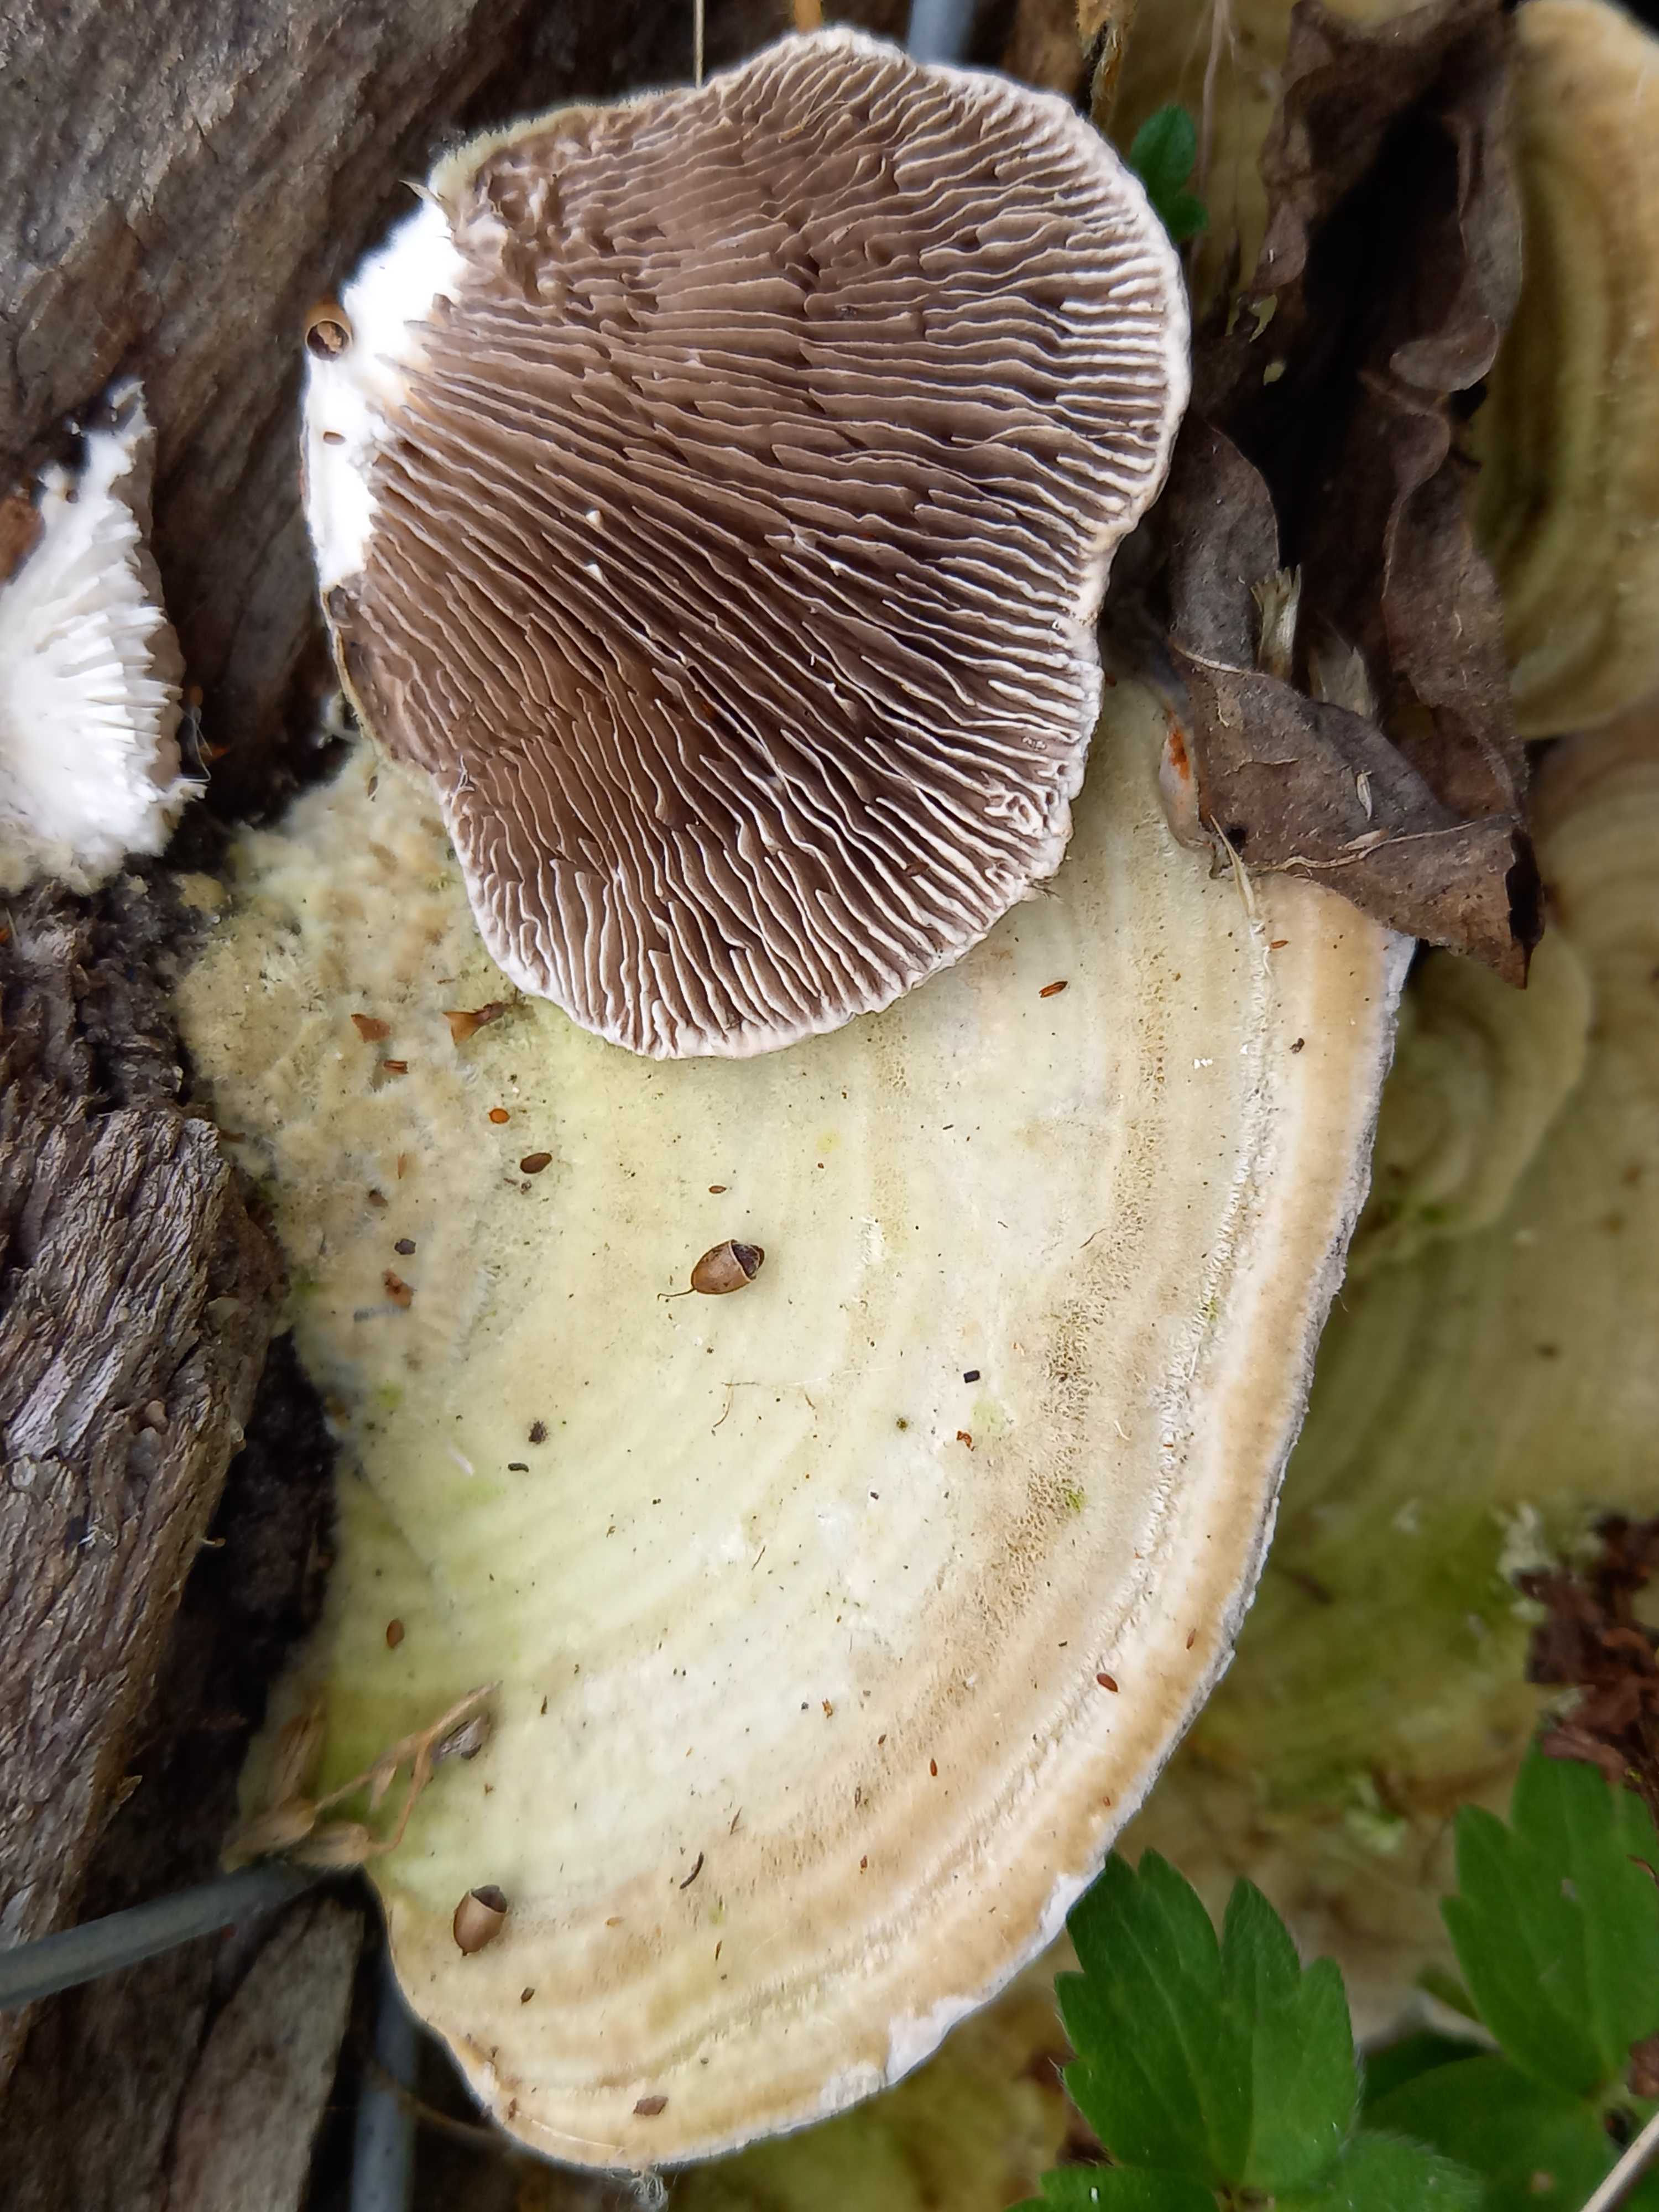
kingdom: Fungi
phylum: Basidiomycota
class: Agaricomycetes
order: Polyporales
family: Polyporaceae
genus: Lenzites
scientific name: Lenzites betulinus
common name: birke-læderporesvamp
